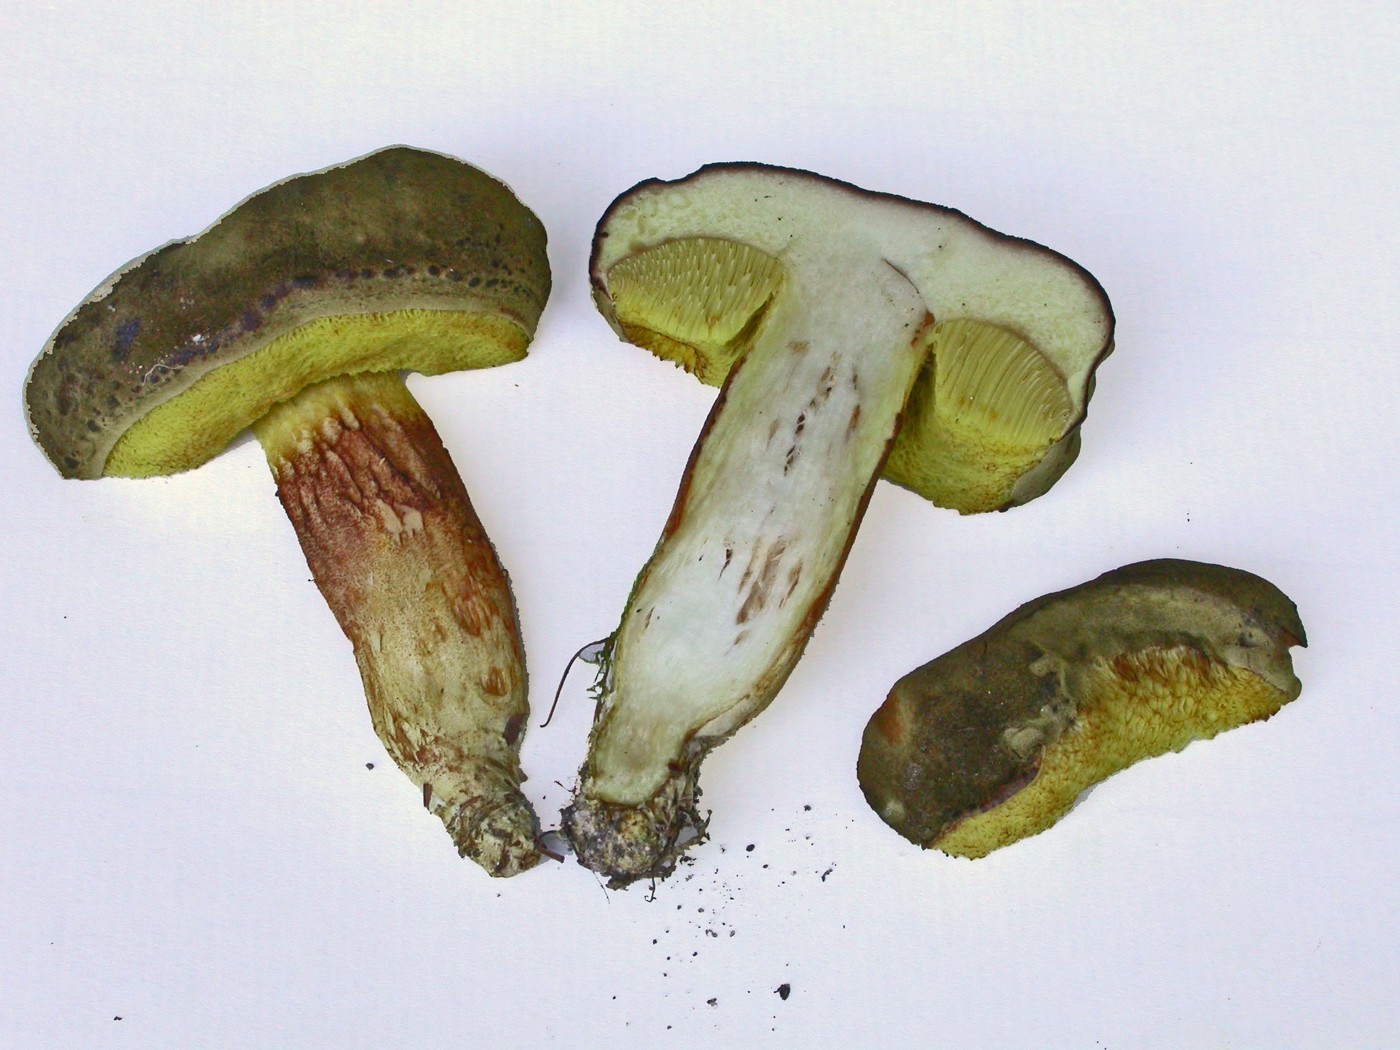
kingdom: Fungi
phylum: Basidiomycota
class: Agaricomycetes
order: Boletales
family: Boletaceae
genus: Xerocomus
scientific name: Xerocomus ferrugineus
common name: vaskeskinds-rørhat
